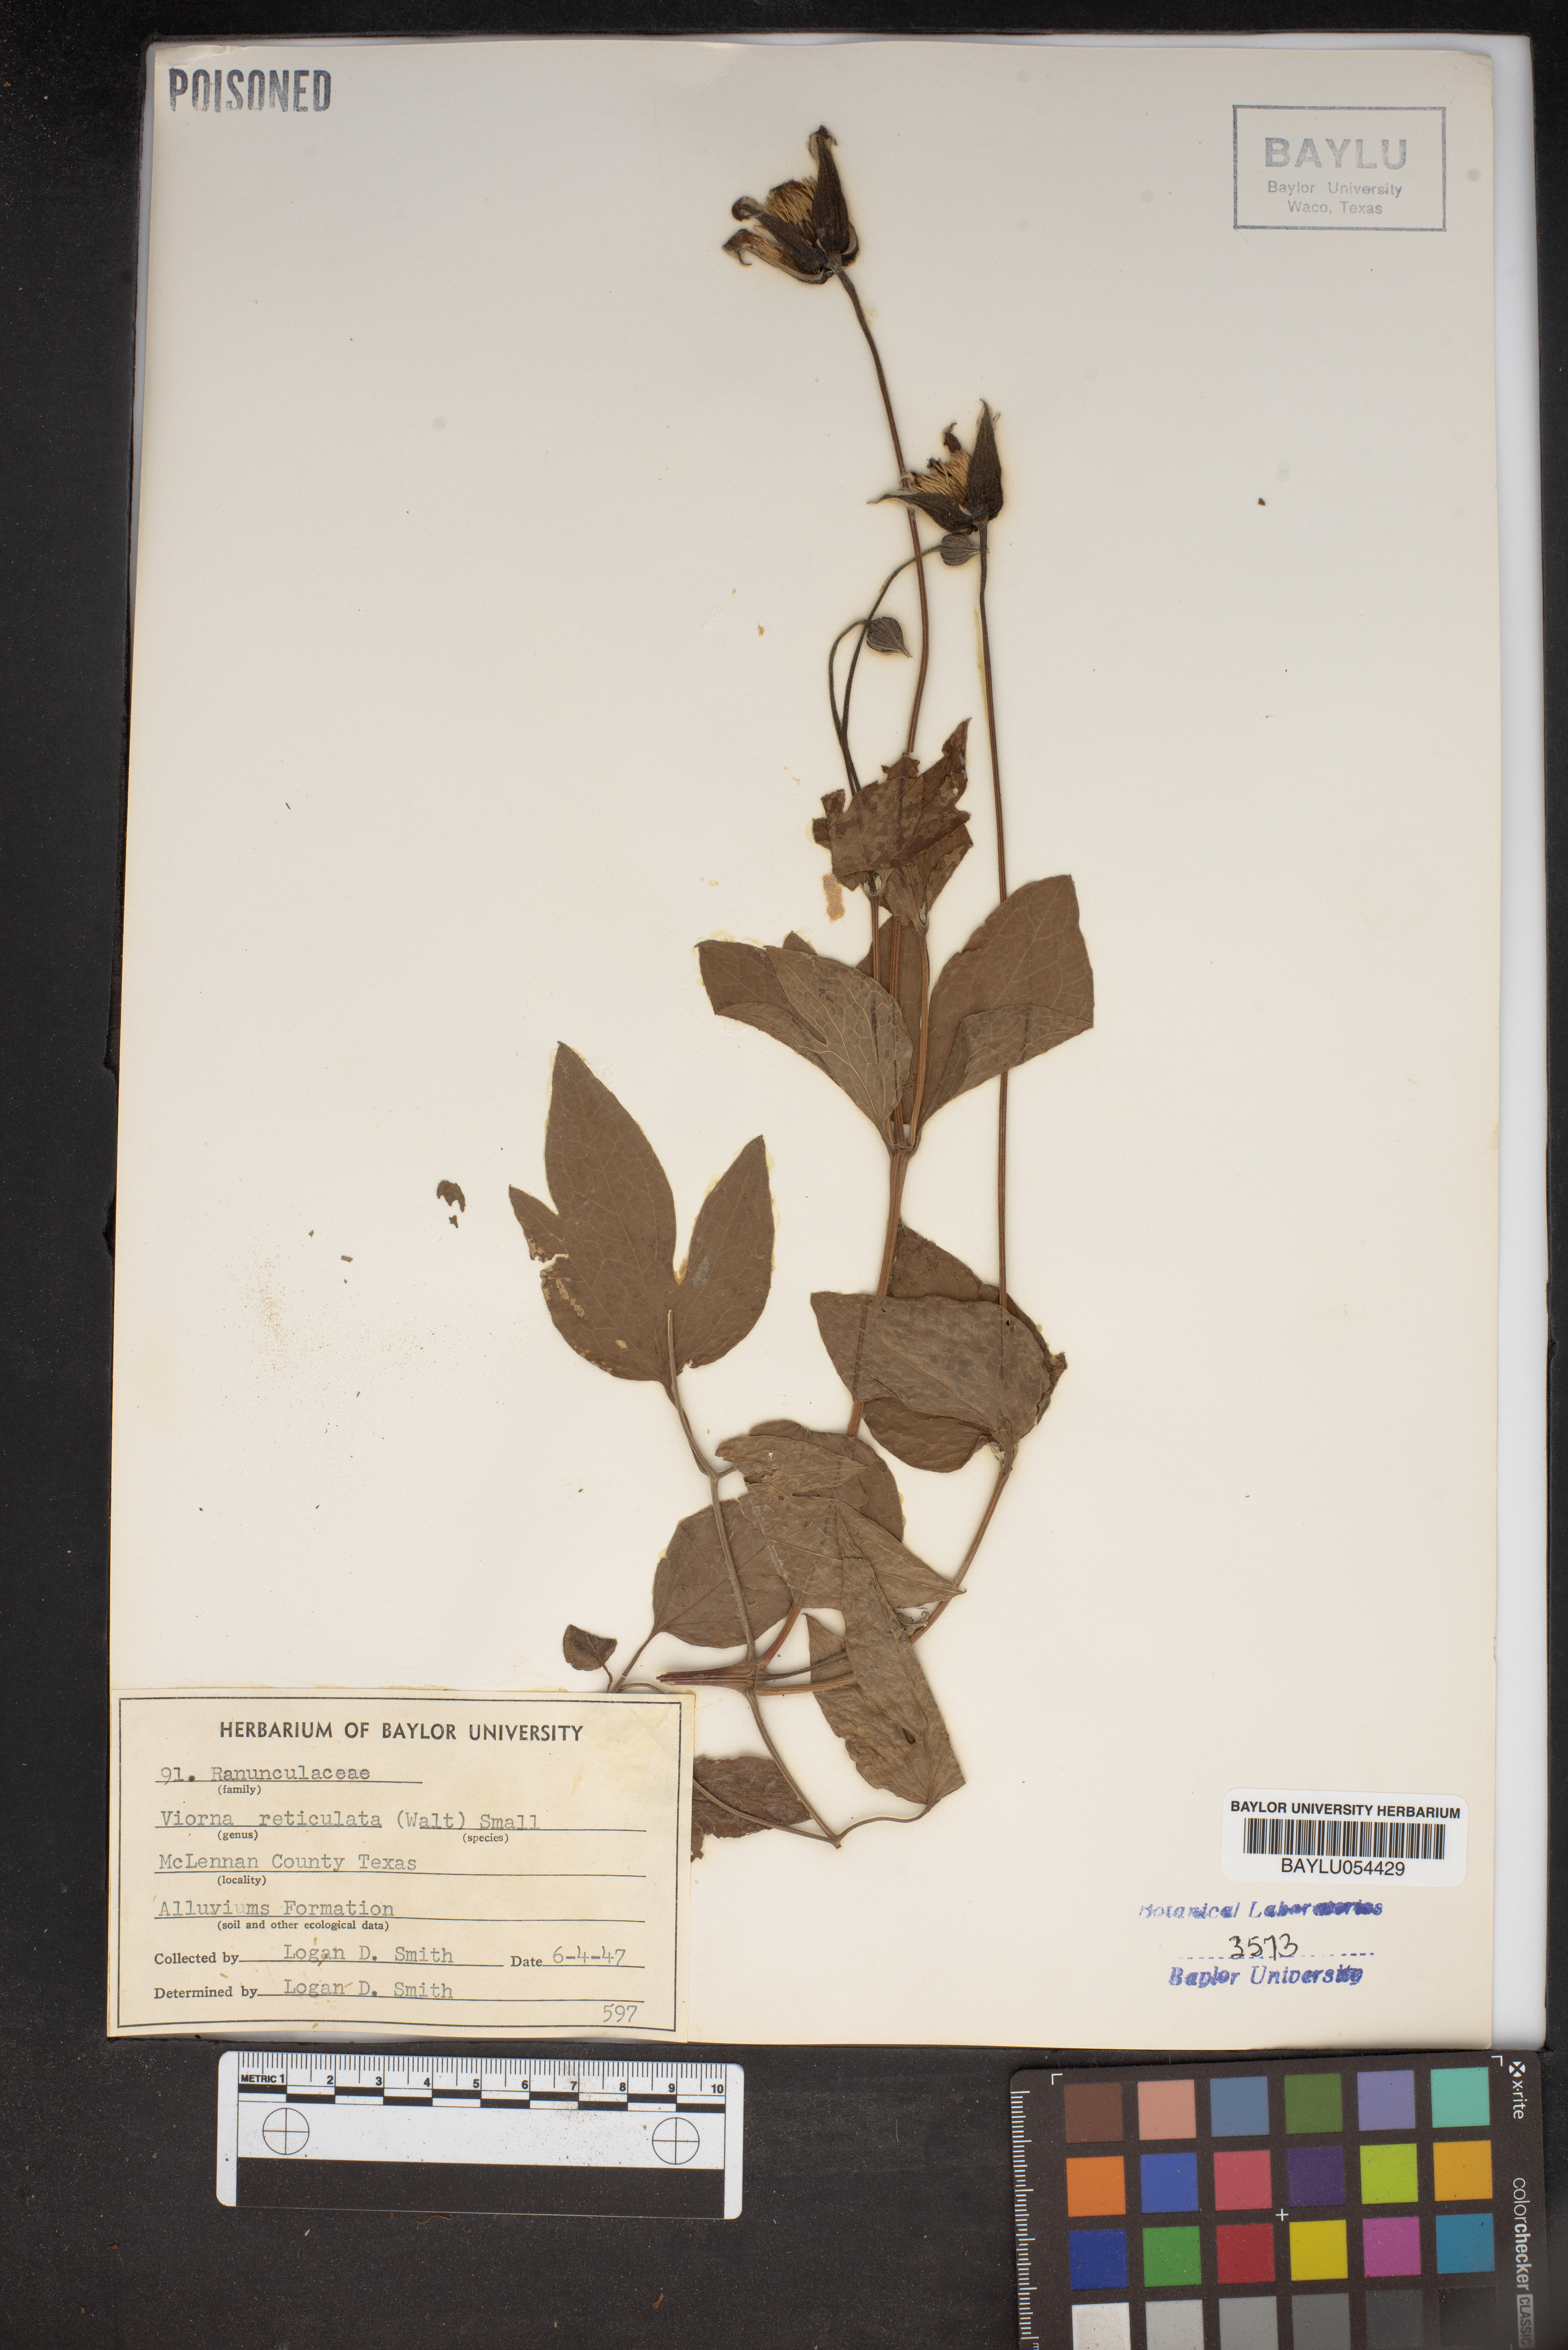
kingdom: Plantae
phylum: Tracheophyta
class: Magnoliopsida
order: Ranunculales
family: Ranunculaceae
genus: Clematis
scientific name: Clematis reticulata
